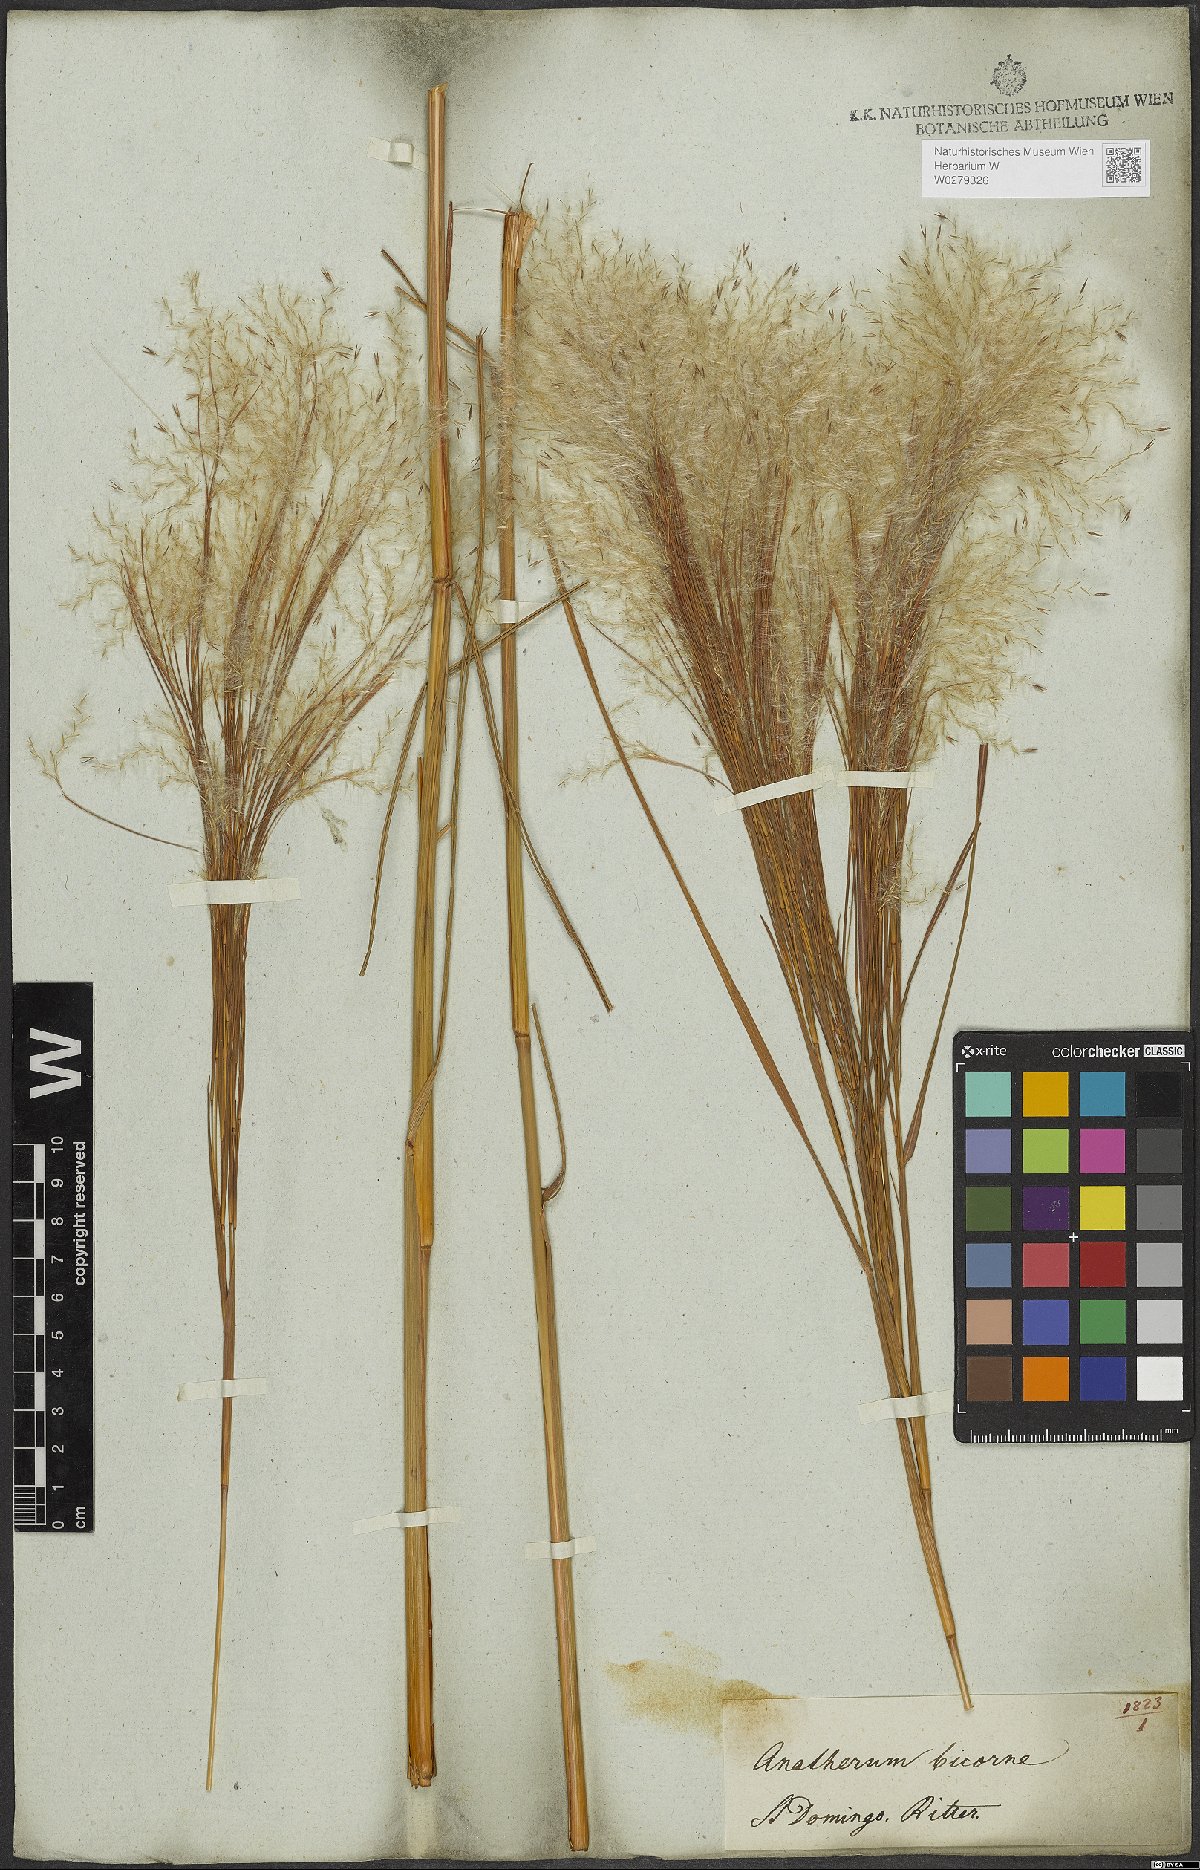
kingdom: Plantae
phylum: Tracheophyta
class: Liliopsida
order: Poales
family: Poaceae
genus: Andropogon
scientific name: Andropogon bicornis
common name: West indian foxtail grass
